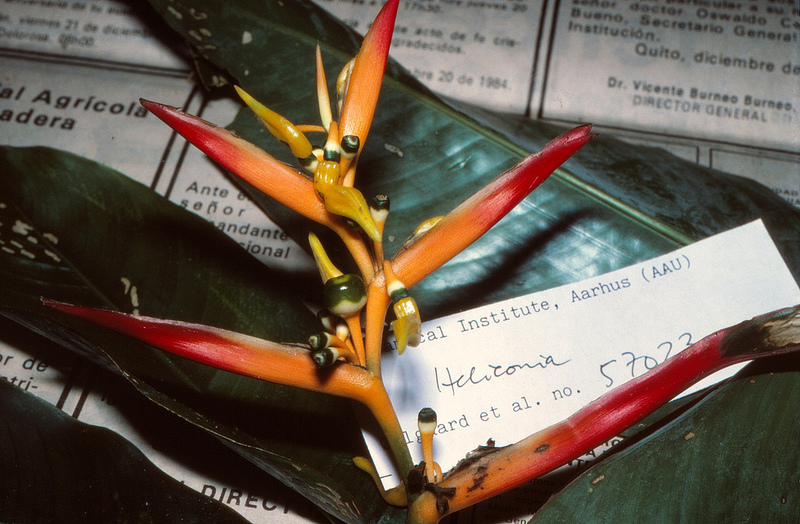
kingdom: Plantae
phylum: Tracheophyta
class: Liliopsida
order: Zingiberales
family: Musaceae
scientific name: Musaceae
